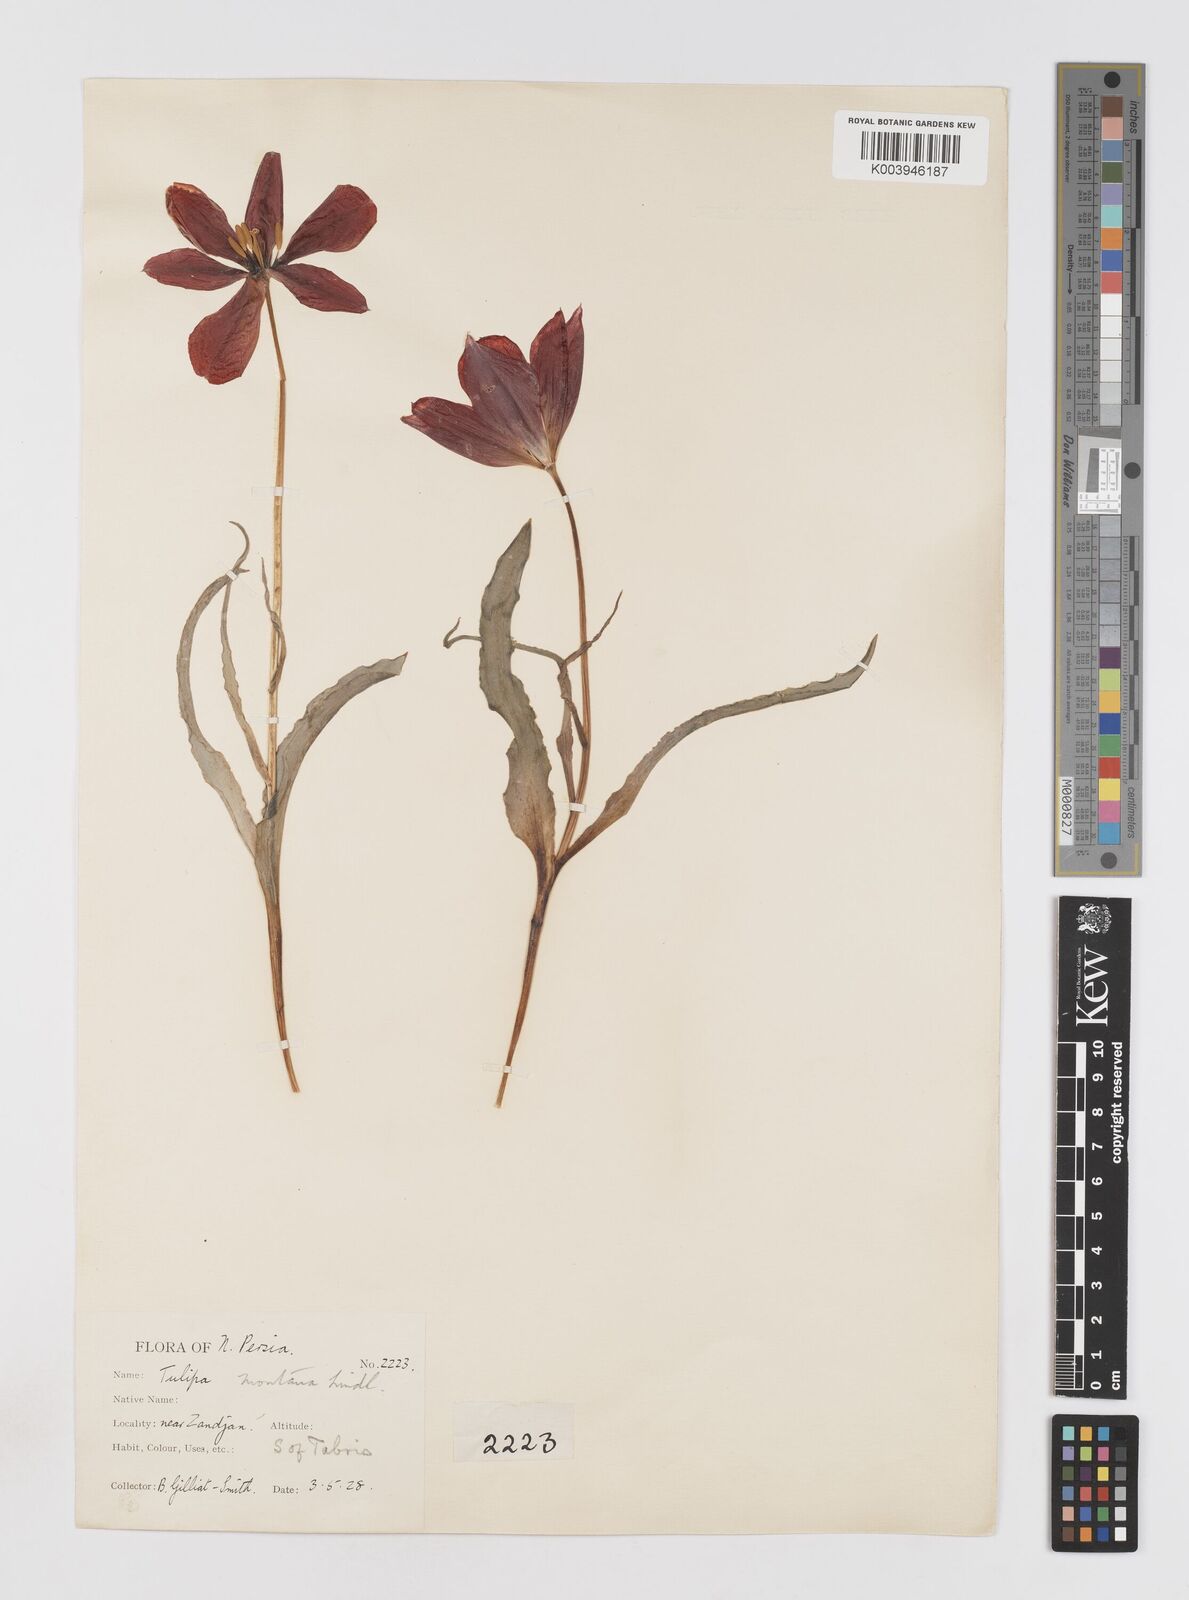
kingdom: Plantae
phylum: Tracheophyta
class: Liliopsida
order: Liliales
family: Liliaceae
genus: Tulipa
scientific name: Tulipa montana
